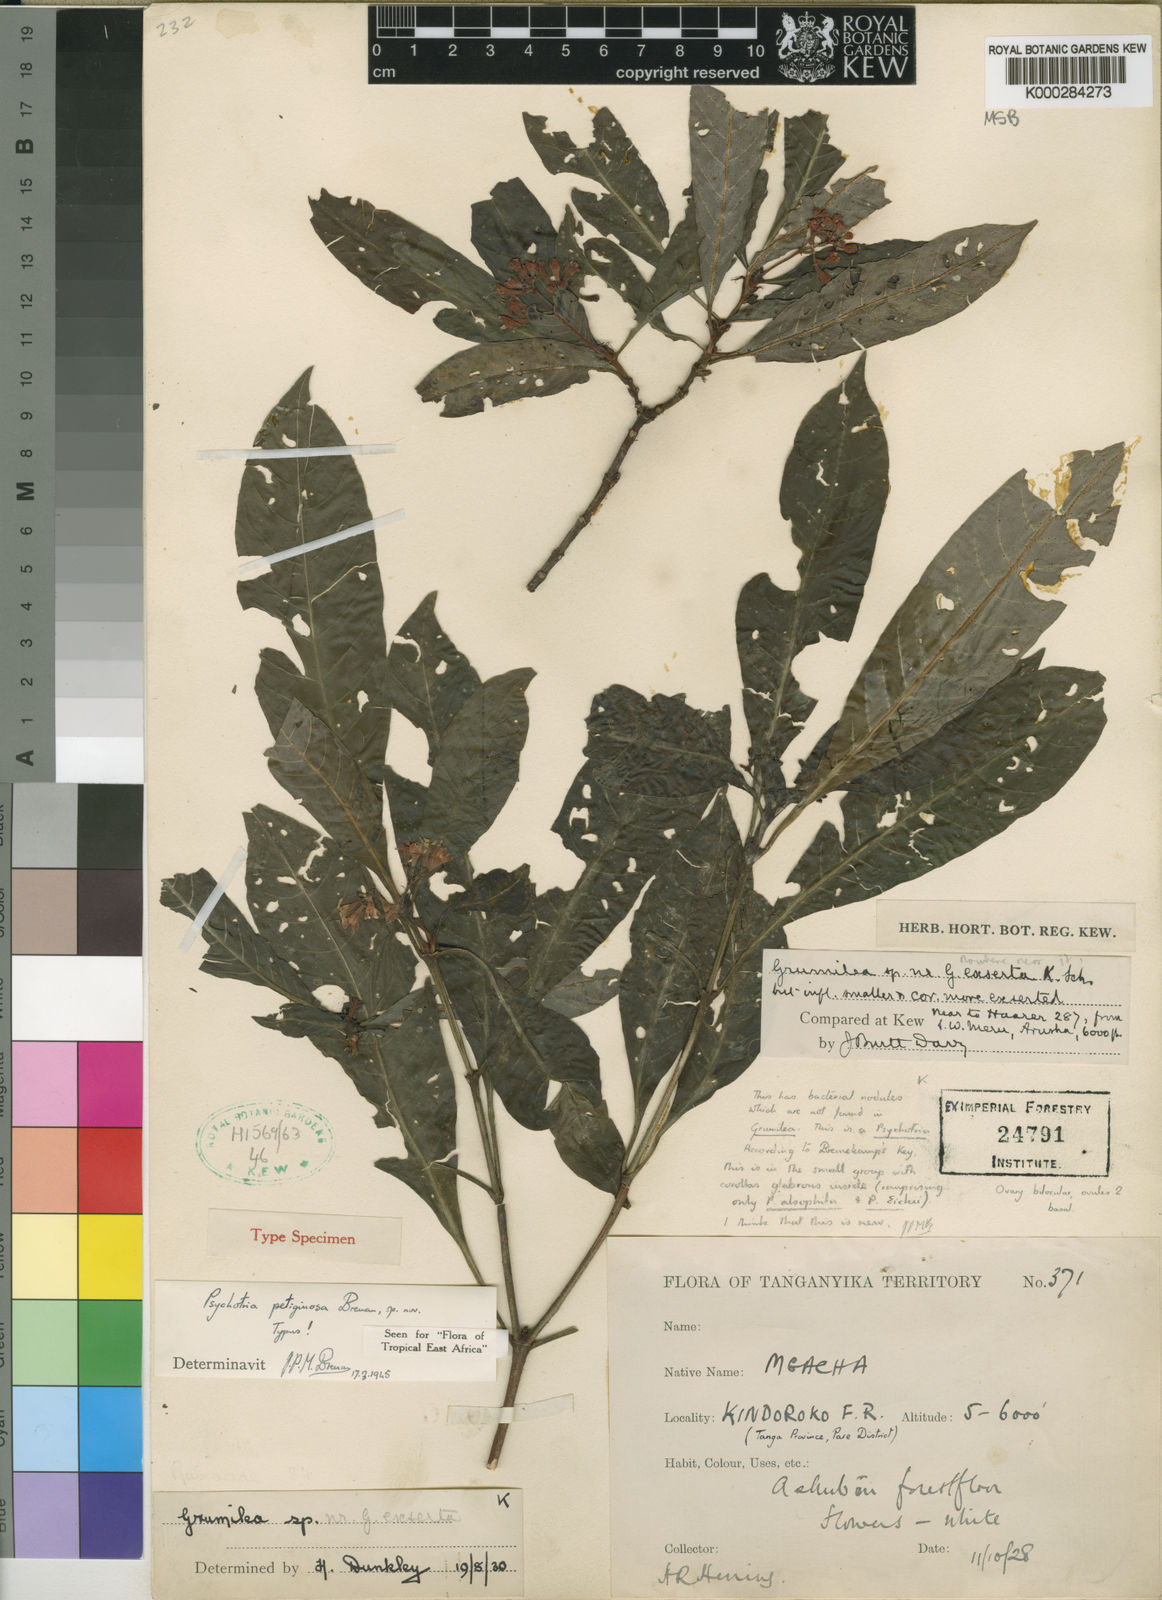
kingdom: Plantae
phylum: Tracheophyta
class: Magnoliopsida
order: Gentianales
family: Rubiaceae
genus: Psychotria
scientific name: Psychotria petiginosa
